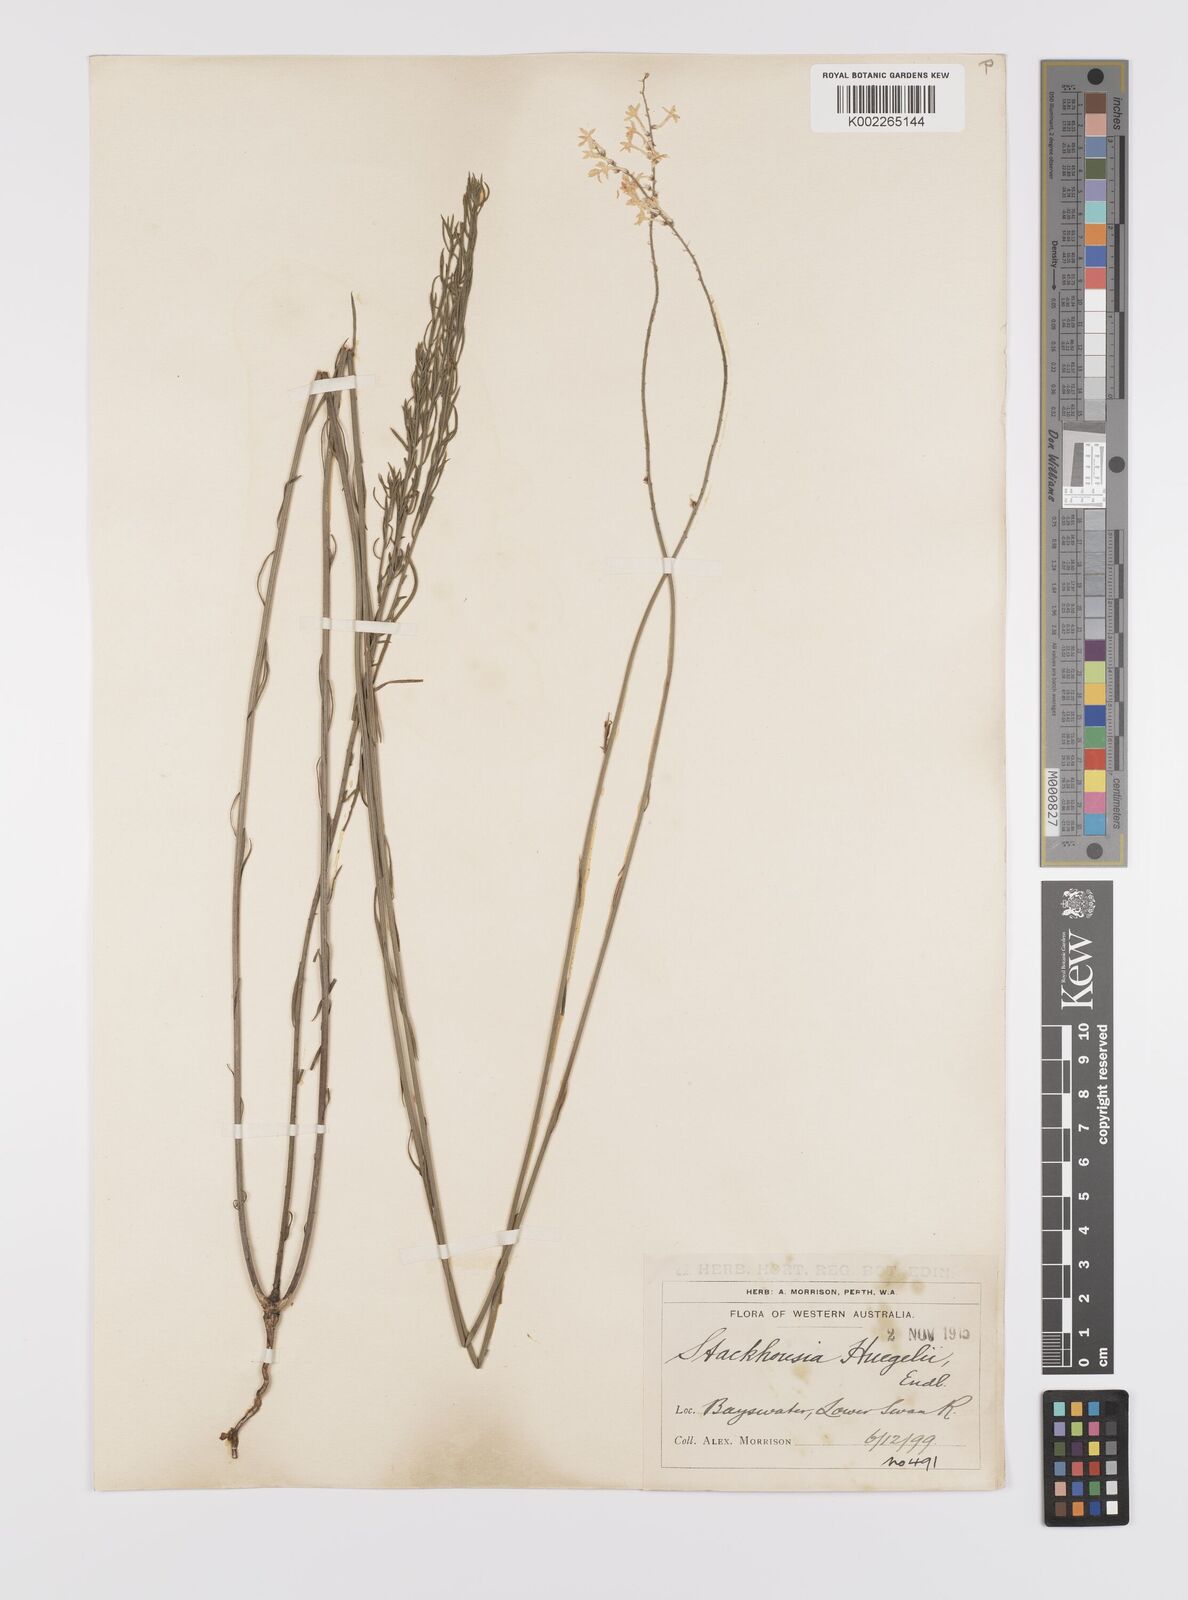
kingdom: Plantae
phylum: Tracheophyta
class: Magnoliopsida
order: Celastrales
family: Celastraceae
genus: Stackhousia
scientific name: Stackhousia monogyna
